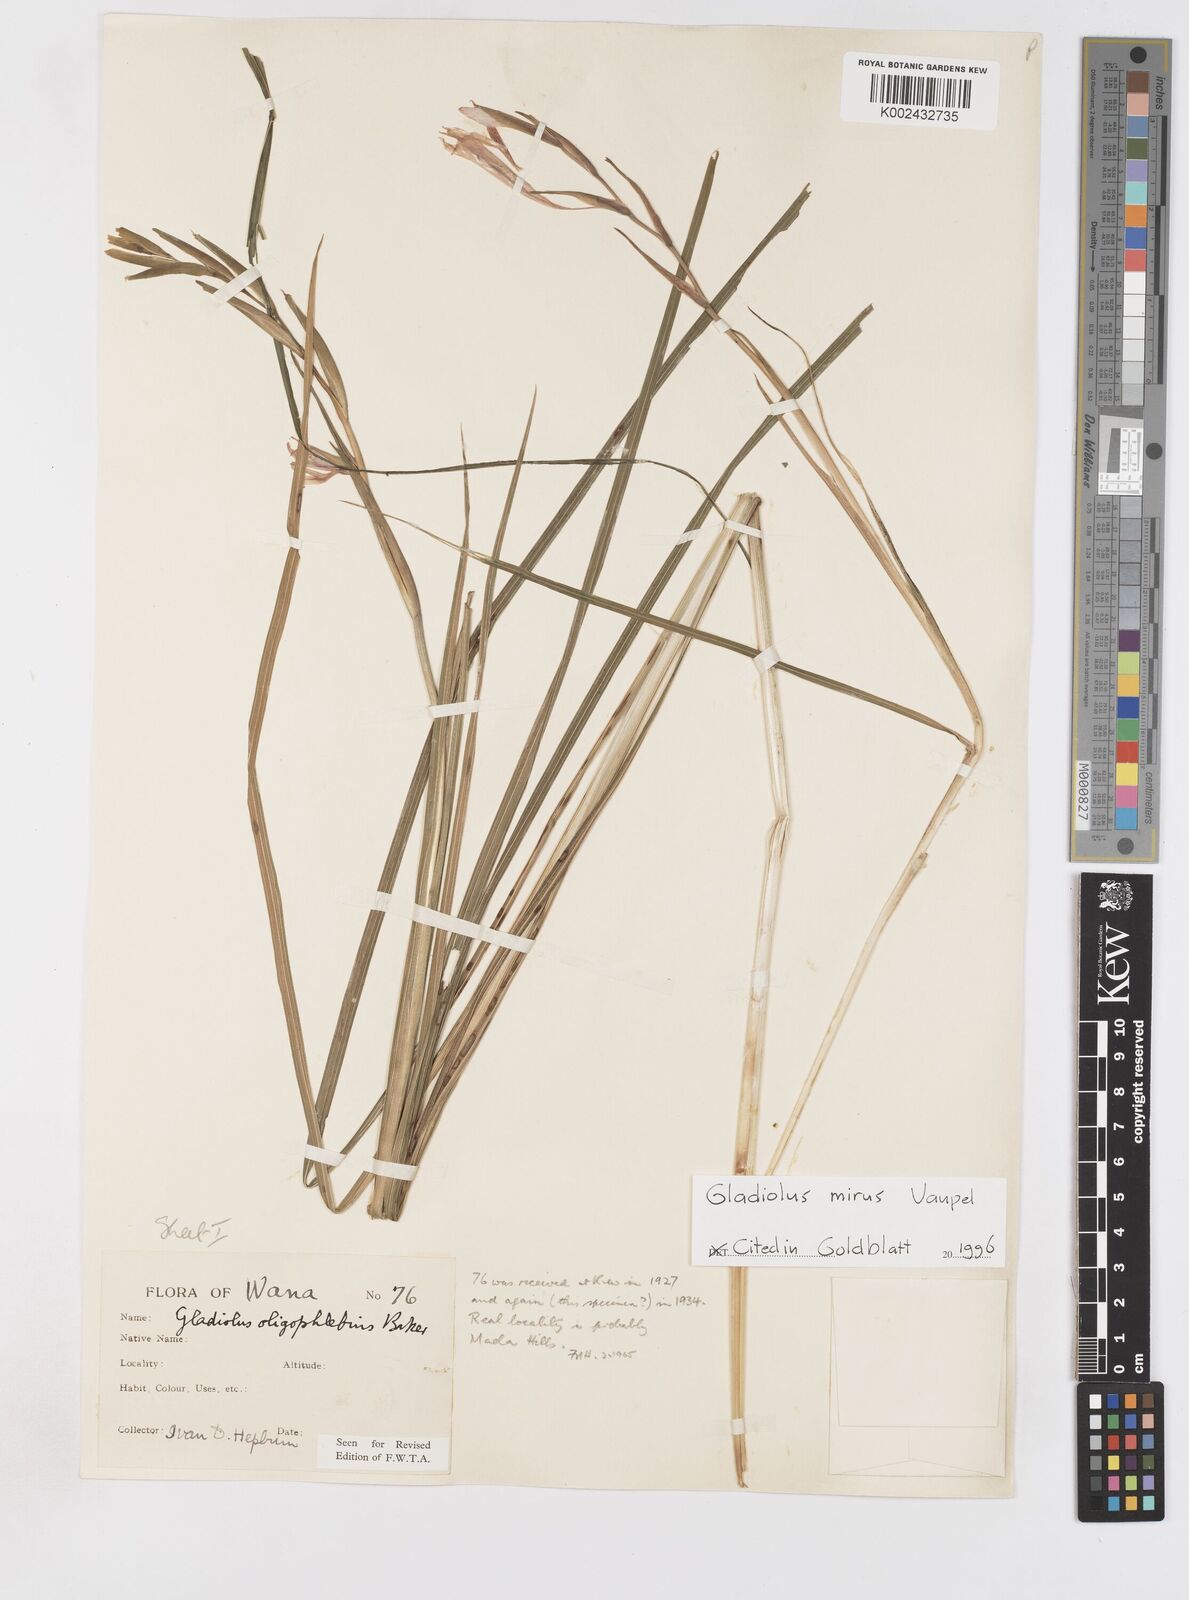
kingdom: Plantae
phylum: Tracheophyta
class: Liliopsida
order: Asparagales
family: Iridaceae
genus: Gladiolus
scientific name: Gladiolus mirus
